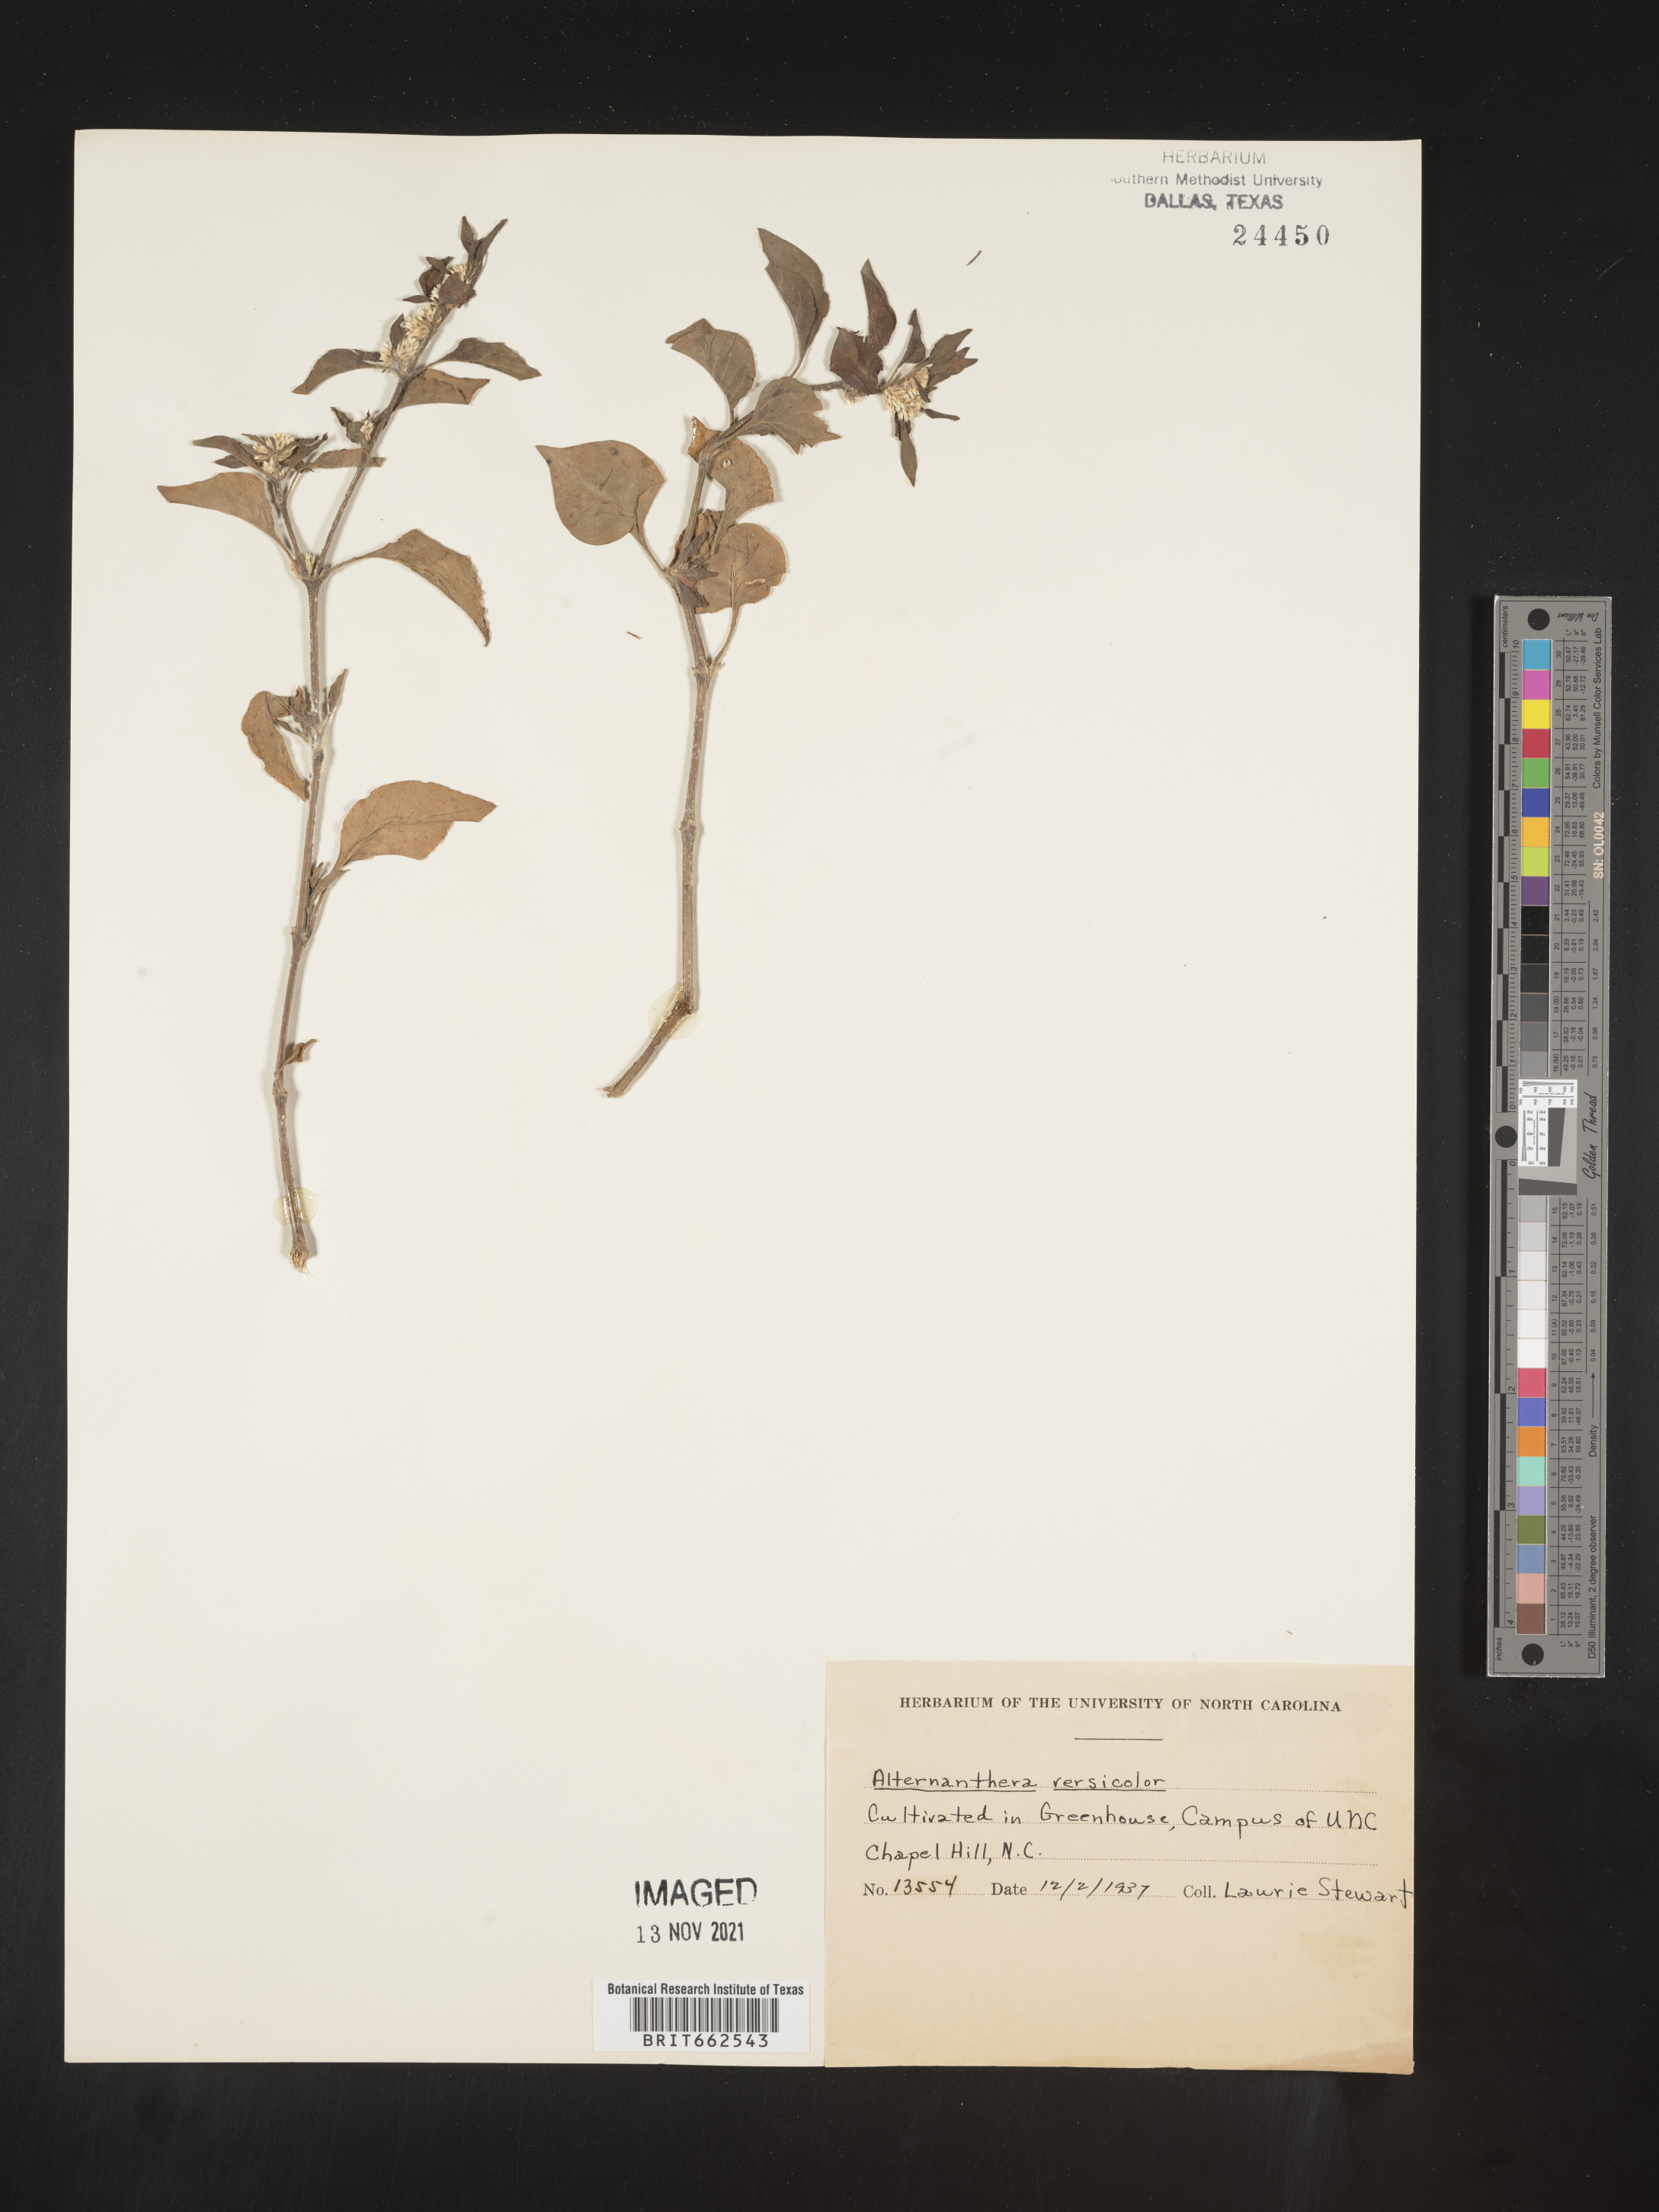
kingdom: Plantae
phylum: Tracheophyta
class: Magnoliopsida
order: Caryophyllales
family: Amaranthaceae
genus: Alternanthera
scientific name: Alternanthera
